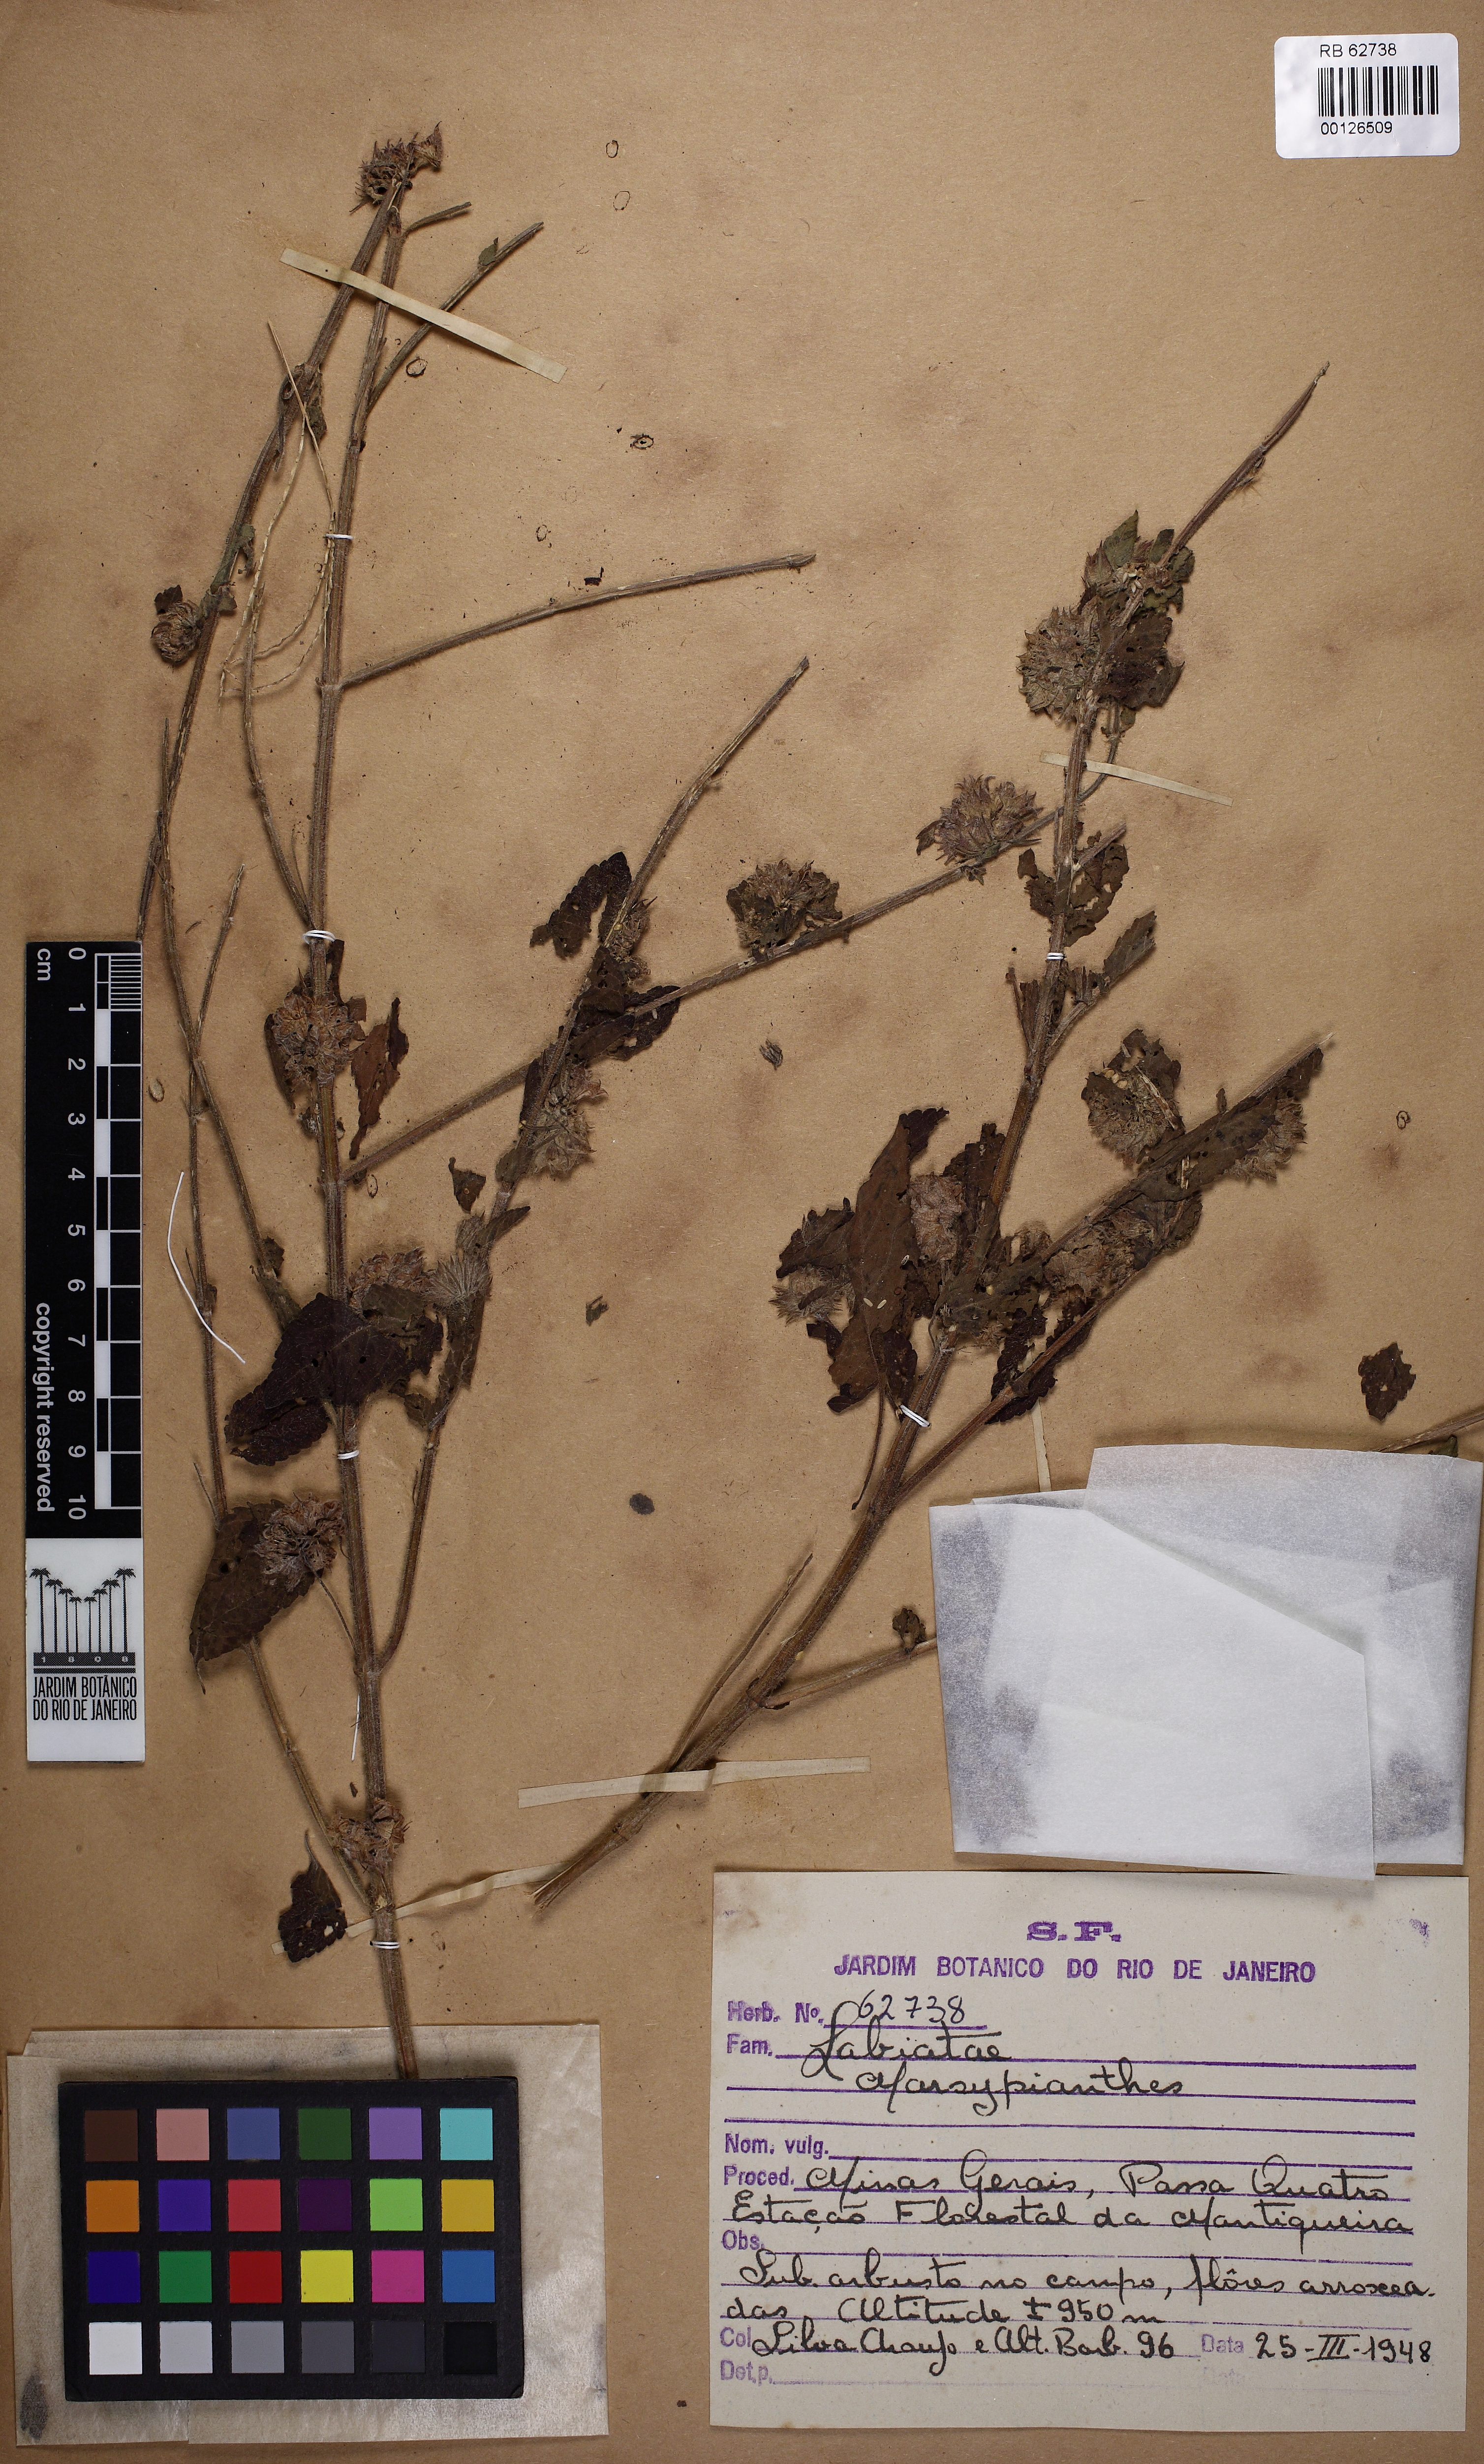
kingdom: Plantae
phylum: Tracheophyta
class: Magnoliopsida
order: Lamiales
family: Lamiaceae
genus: Marsypianthes
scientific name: Marsypianthes chamaedrys
